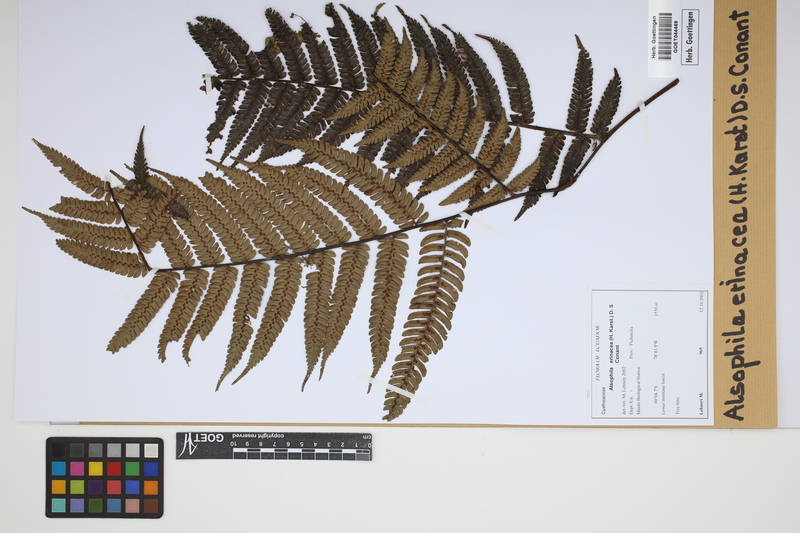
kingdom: Plantae
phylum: Tracheophyta
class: Polypodiopsida
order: Cyatheales
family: Cyatheaceae
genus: Alsophila
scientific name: Alsophila erinacea
